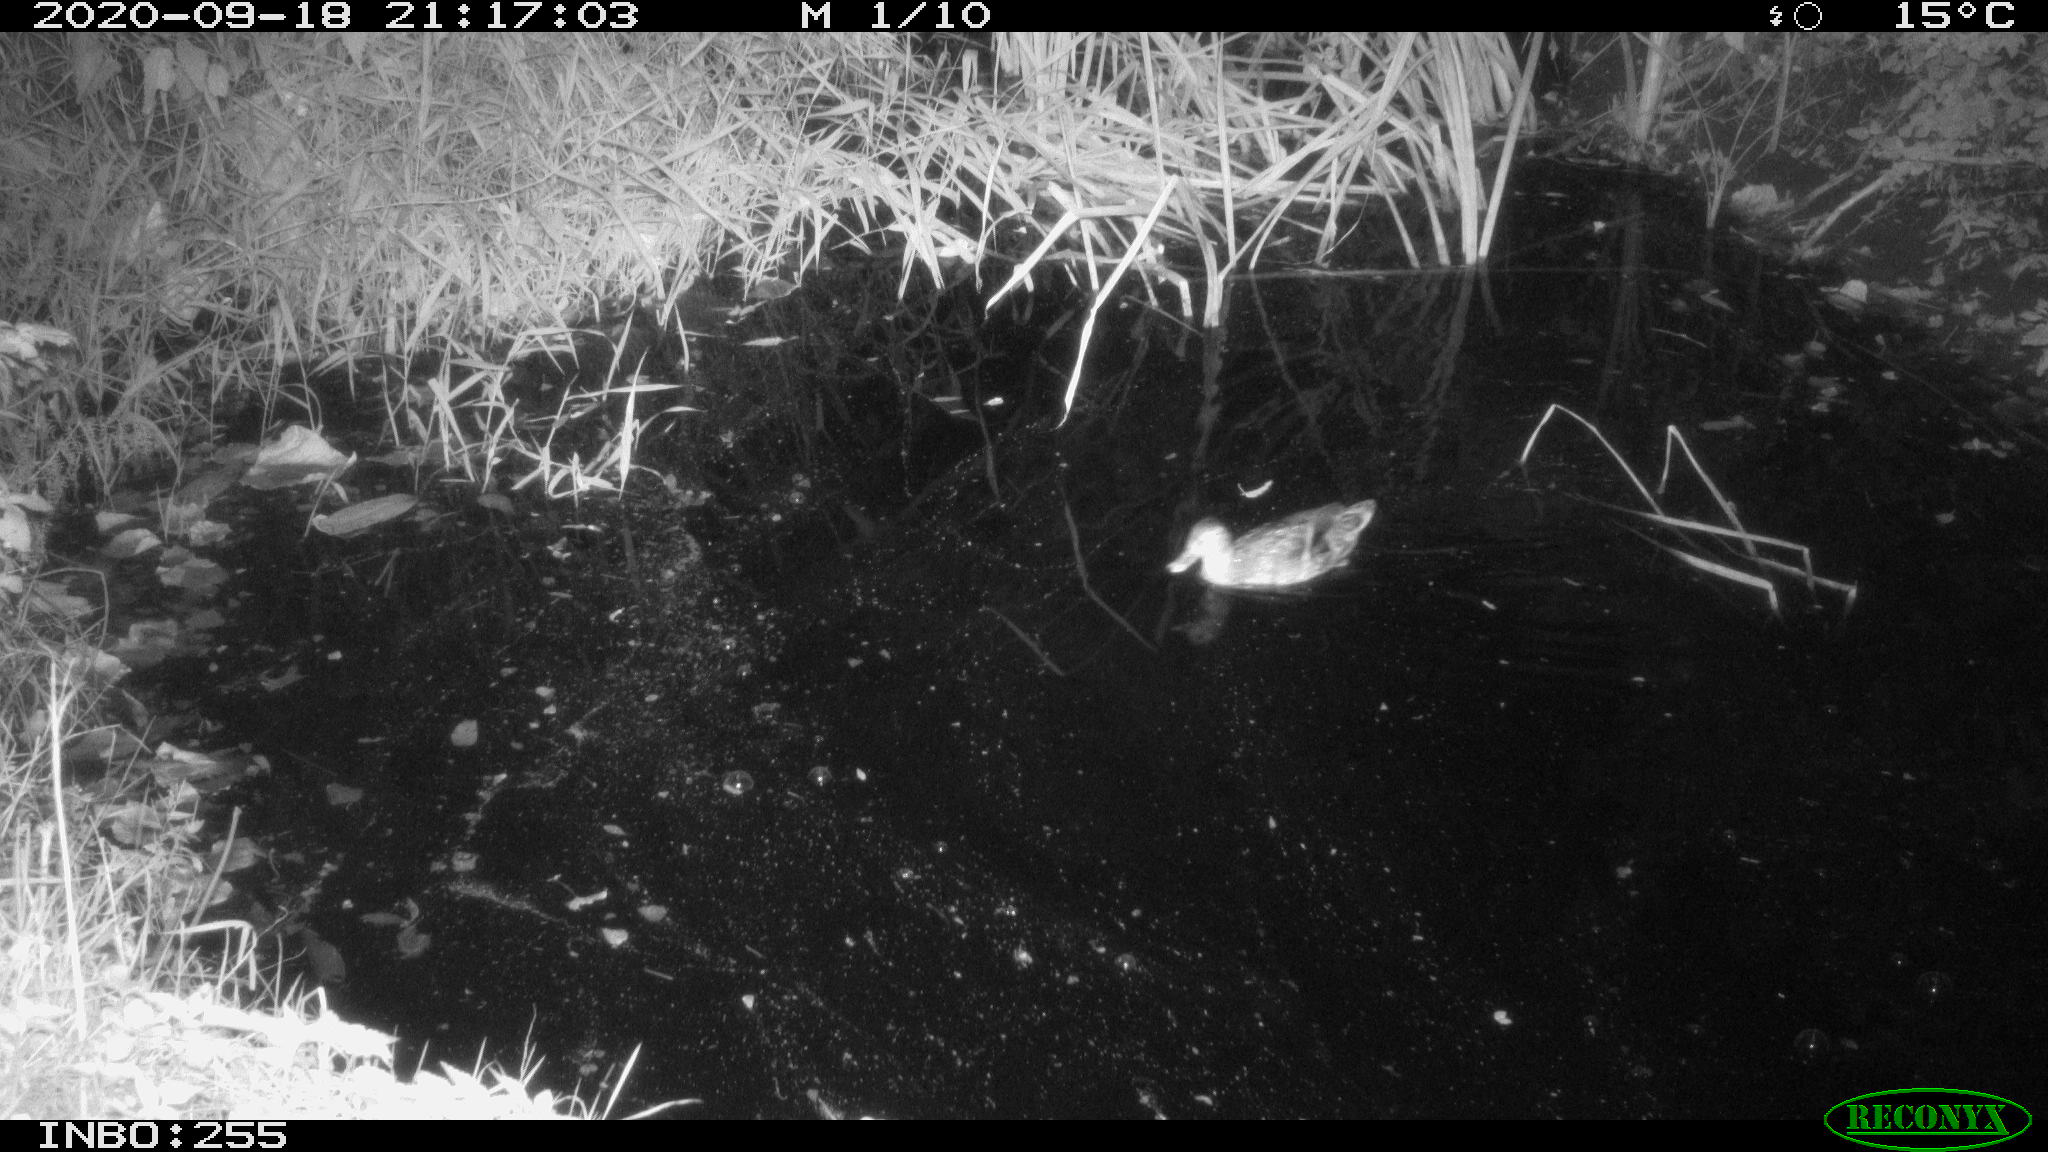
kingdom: Animalia
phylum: Chordata
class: Aves
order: Anseriformes
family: Anatidae
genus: Anas
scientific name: Anas platyrhynchos
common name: Mallard
